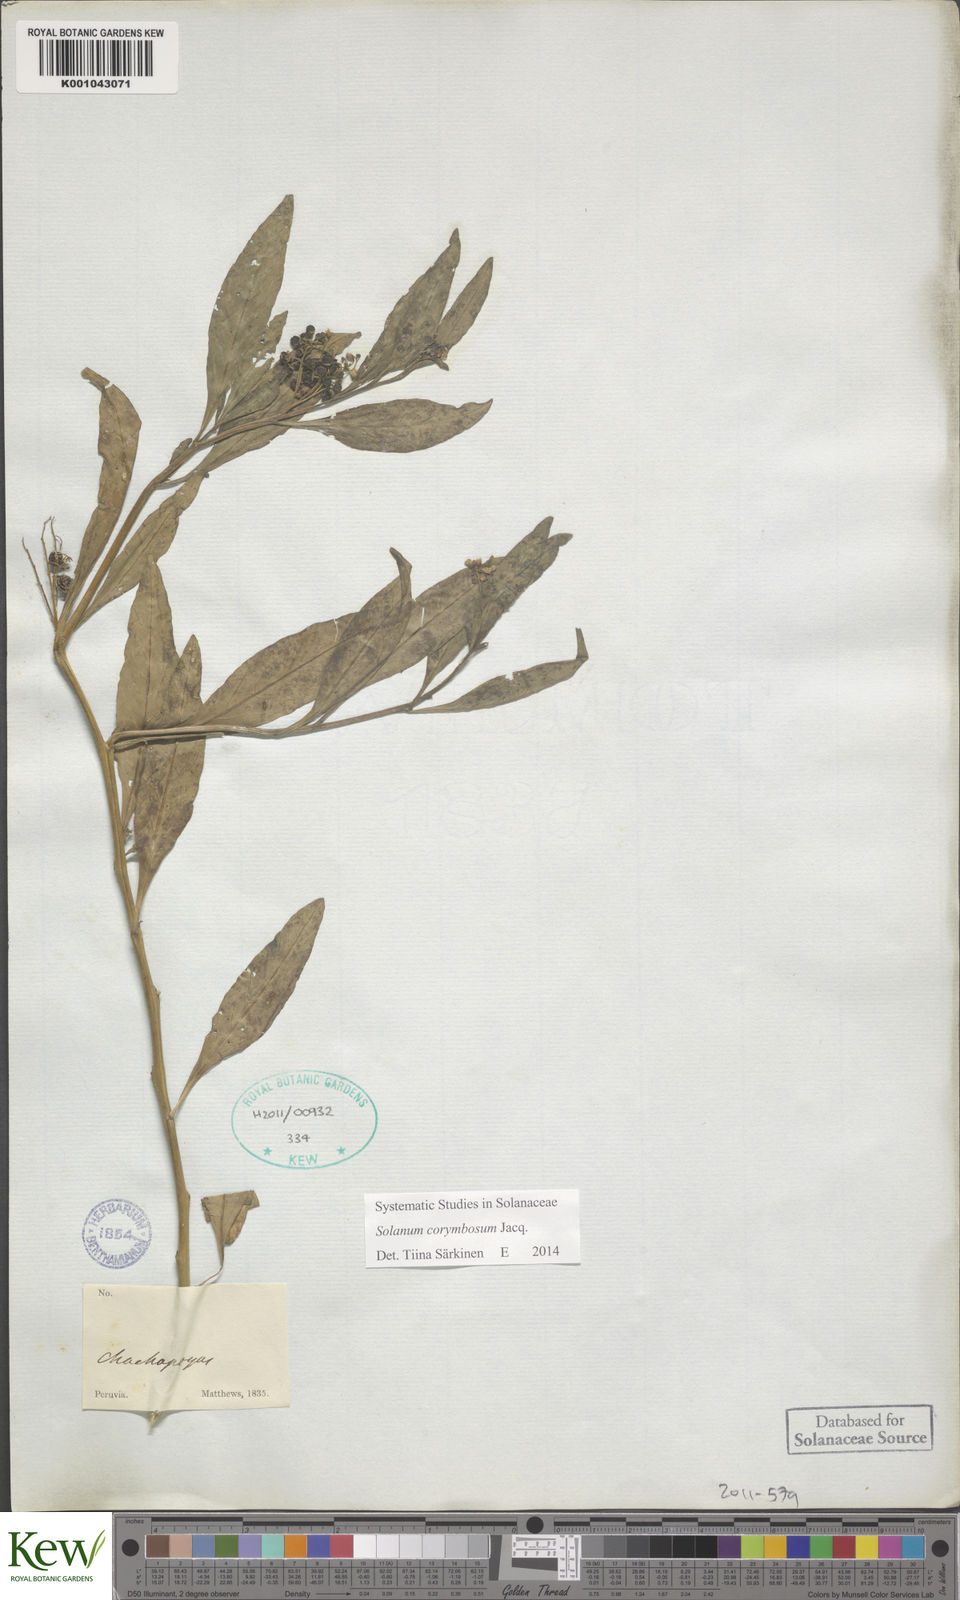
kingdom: Plantae
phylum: Tracheophyta
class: Magnoliopsida
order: Solanales
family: Solanaceae
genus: Solanum
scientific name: Solanum corymbosum
